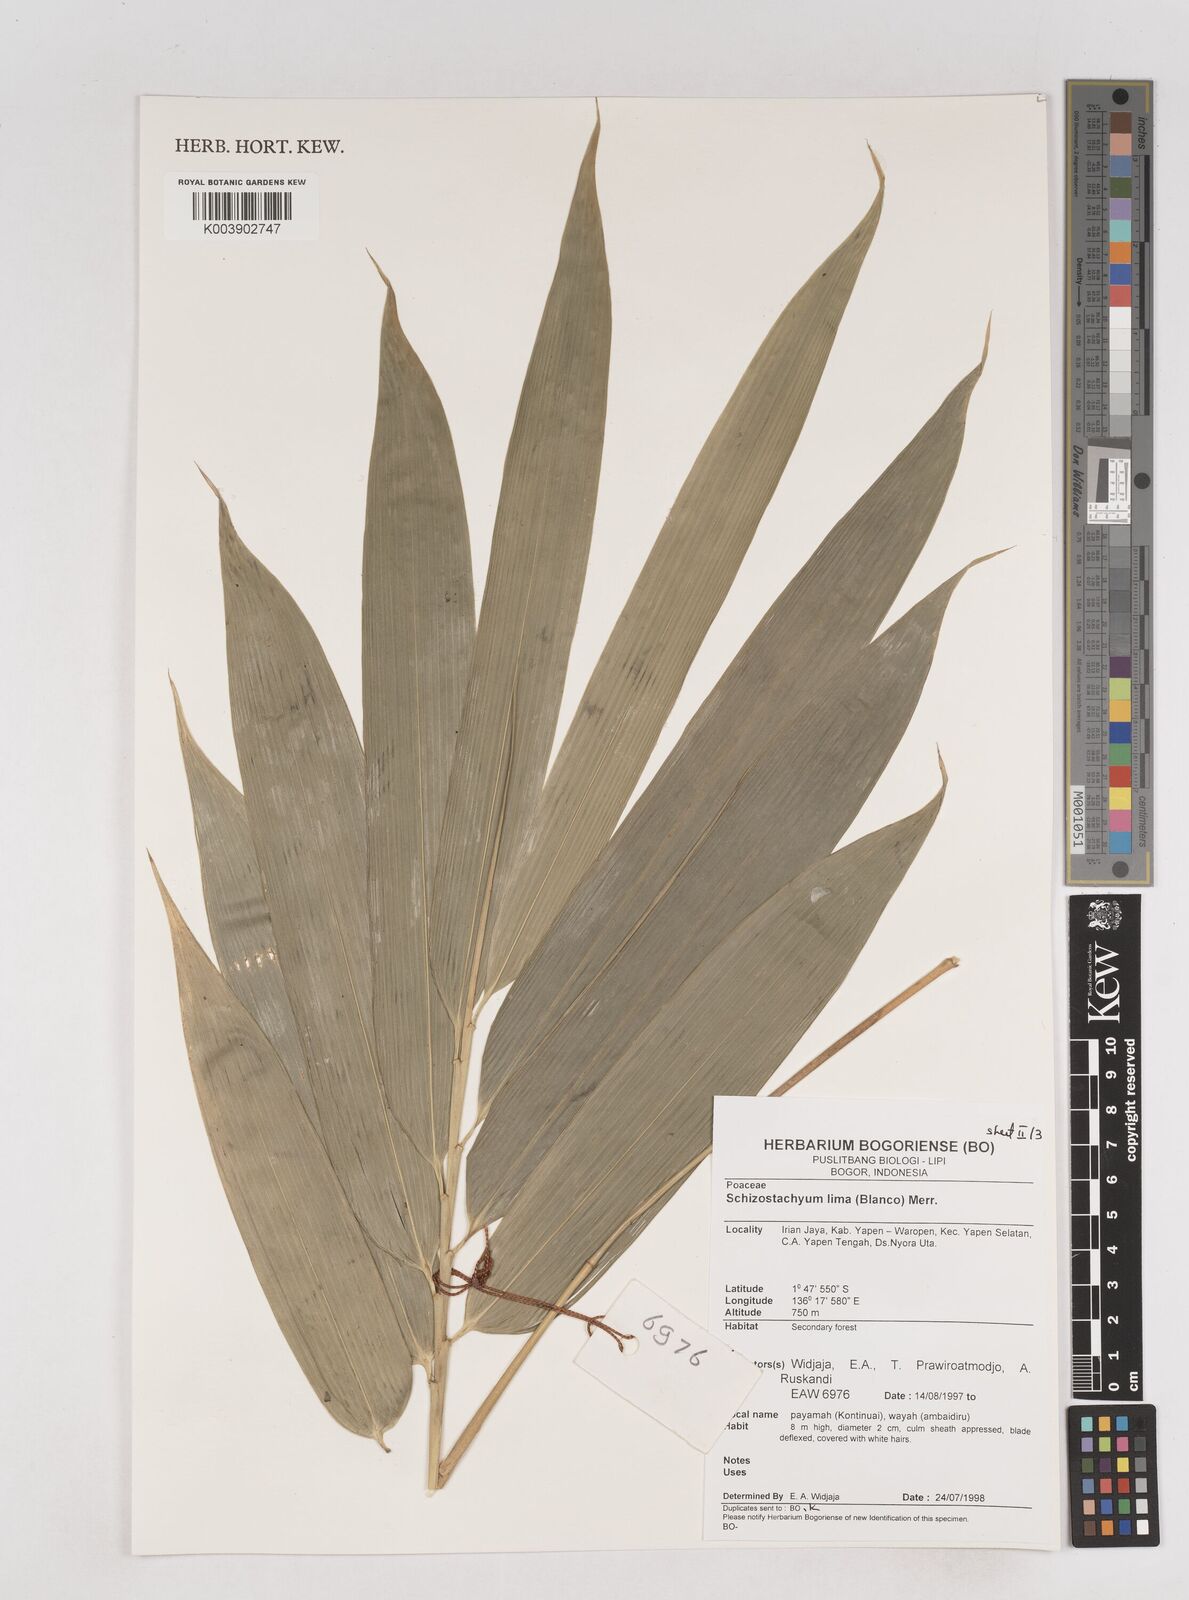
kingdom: Plantae
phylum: Tracheophyta
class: Liliopsida
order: Poales
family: Poaceae
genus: Schizostachyum
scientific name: Schizostachyum lima
